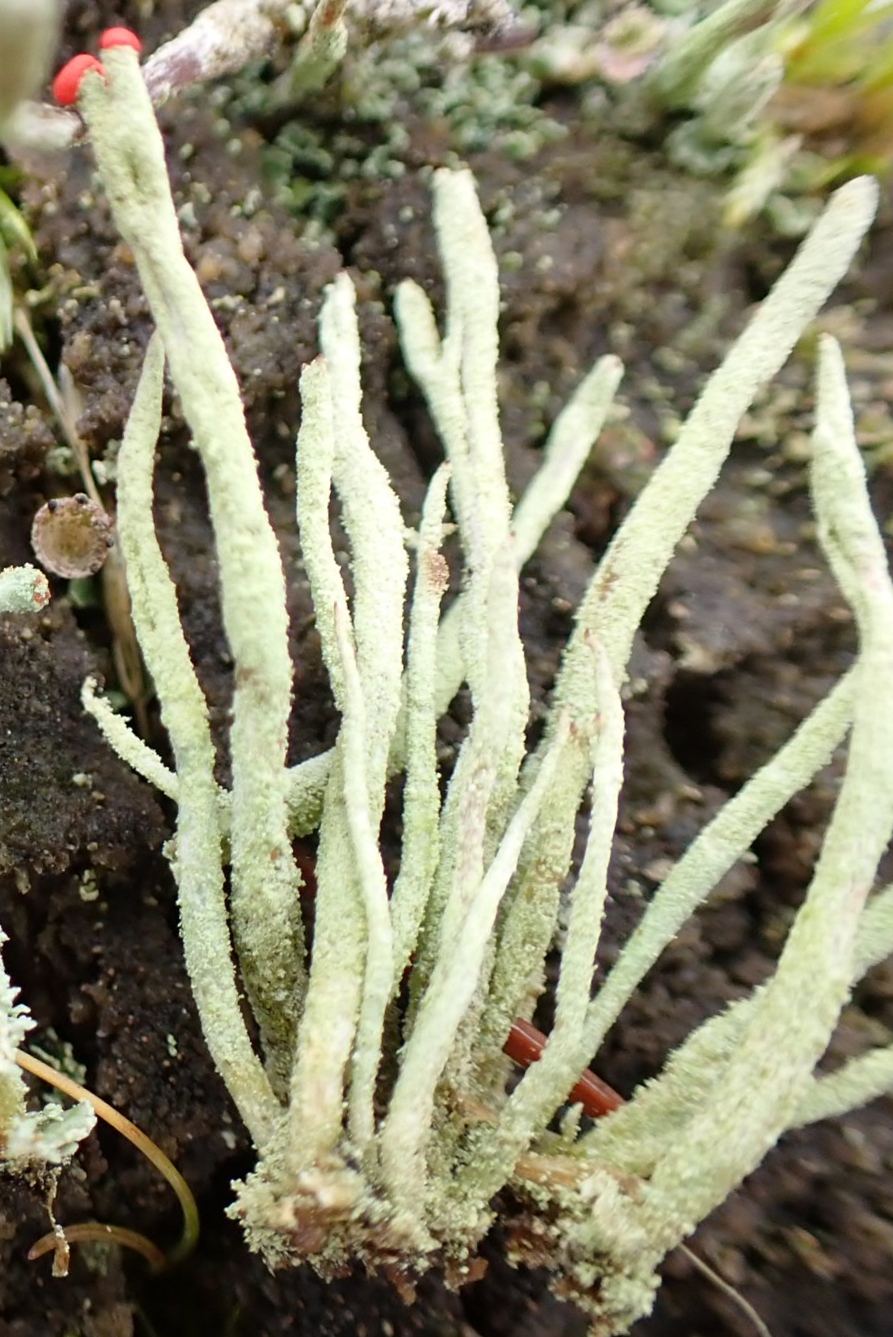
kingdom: Fungi
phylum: Ascomycota
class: Lecanoromycetes
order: Lecanorales
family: Cladoniaceae
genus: Cladonia
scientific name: Cladonia macilenta
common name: indsvunden bægerlav
